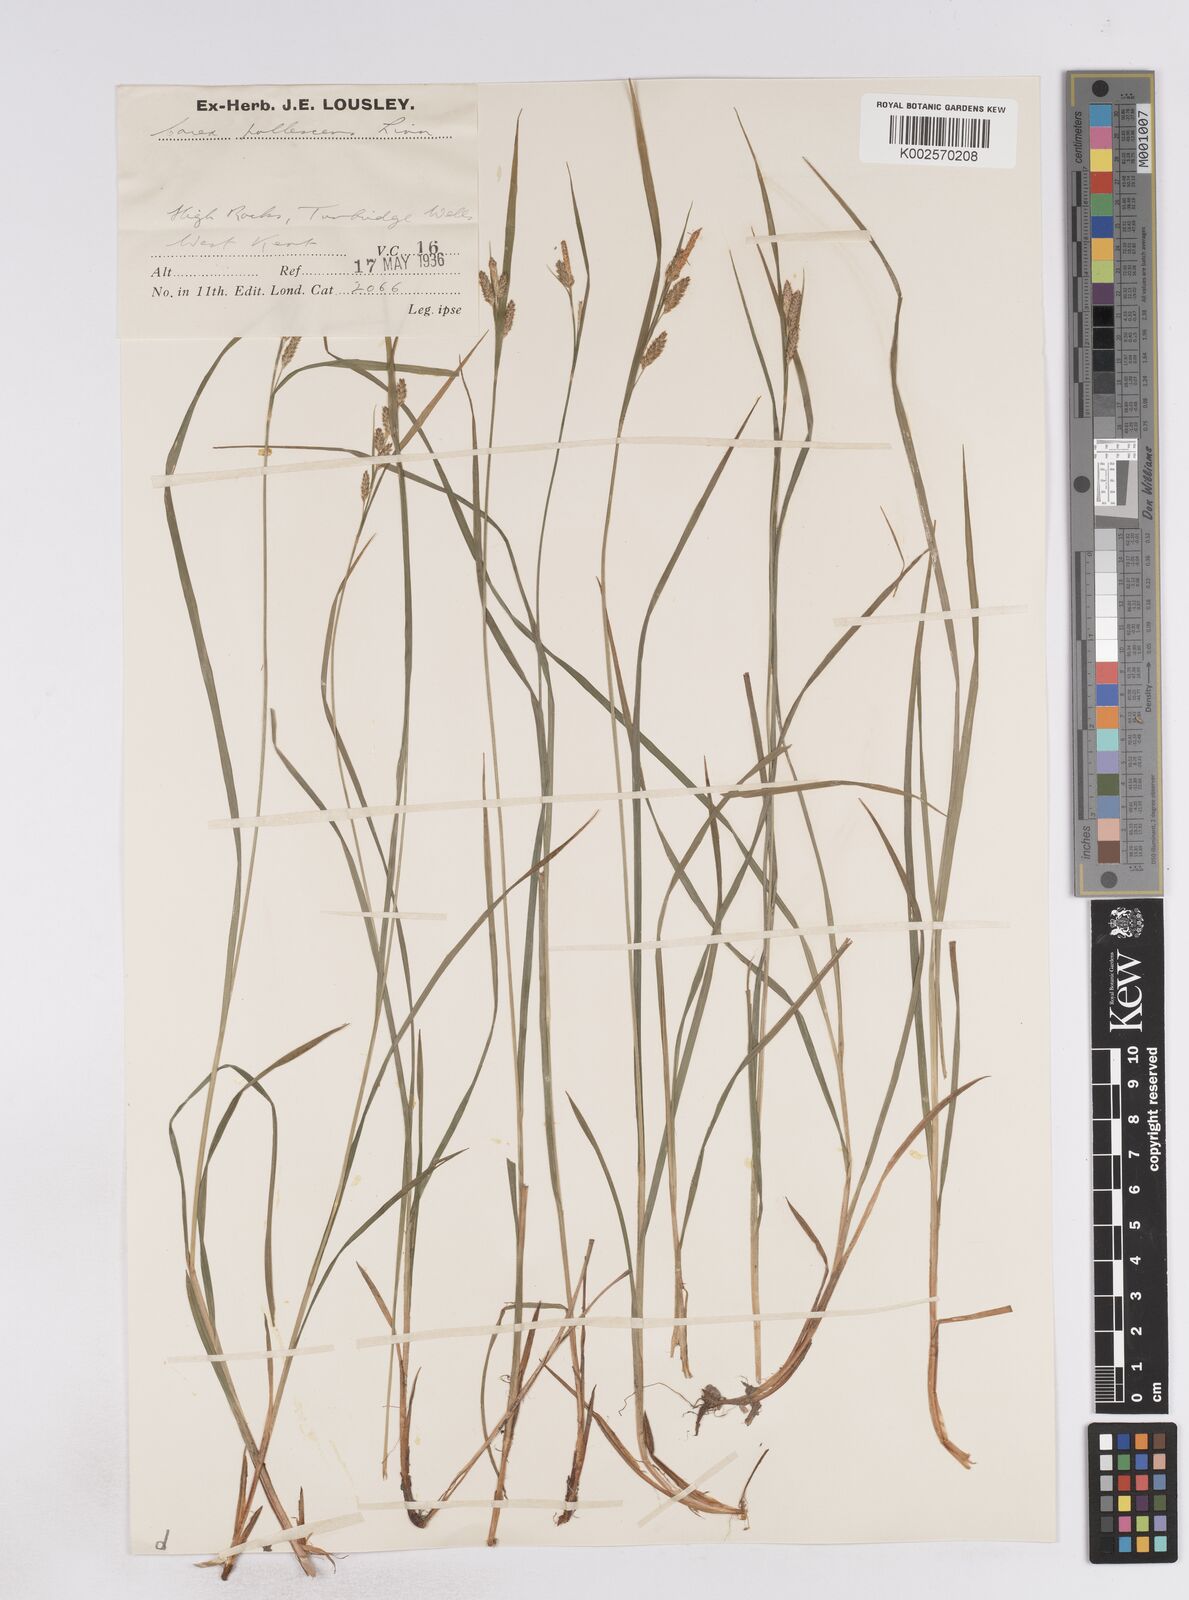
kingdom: Plantae
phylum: Tracheophyta
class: Liliopsida
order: Poales
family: Cyperaceae
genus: Carex
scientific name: Carex pallescens
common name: Pale sedge
